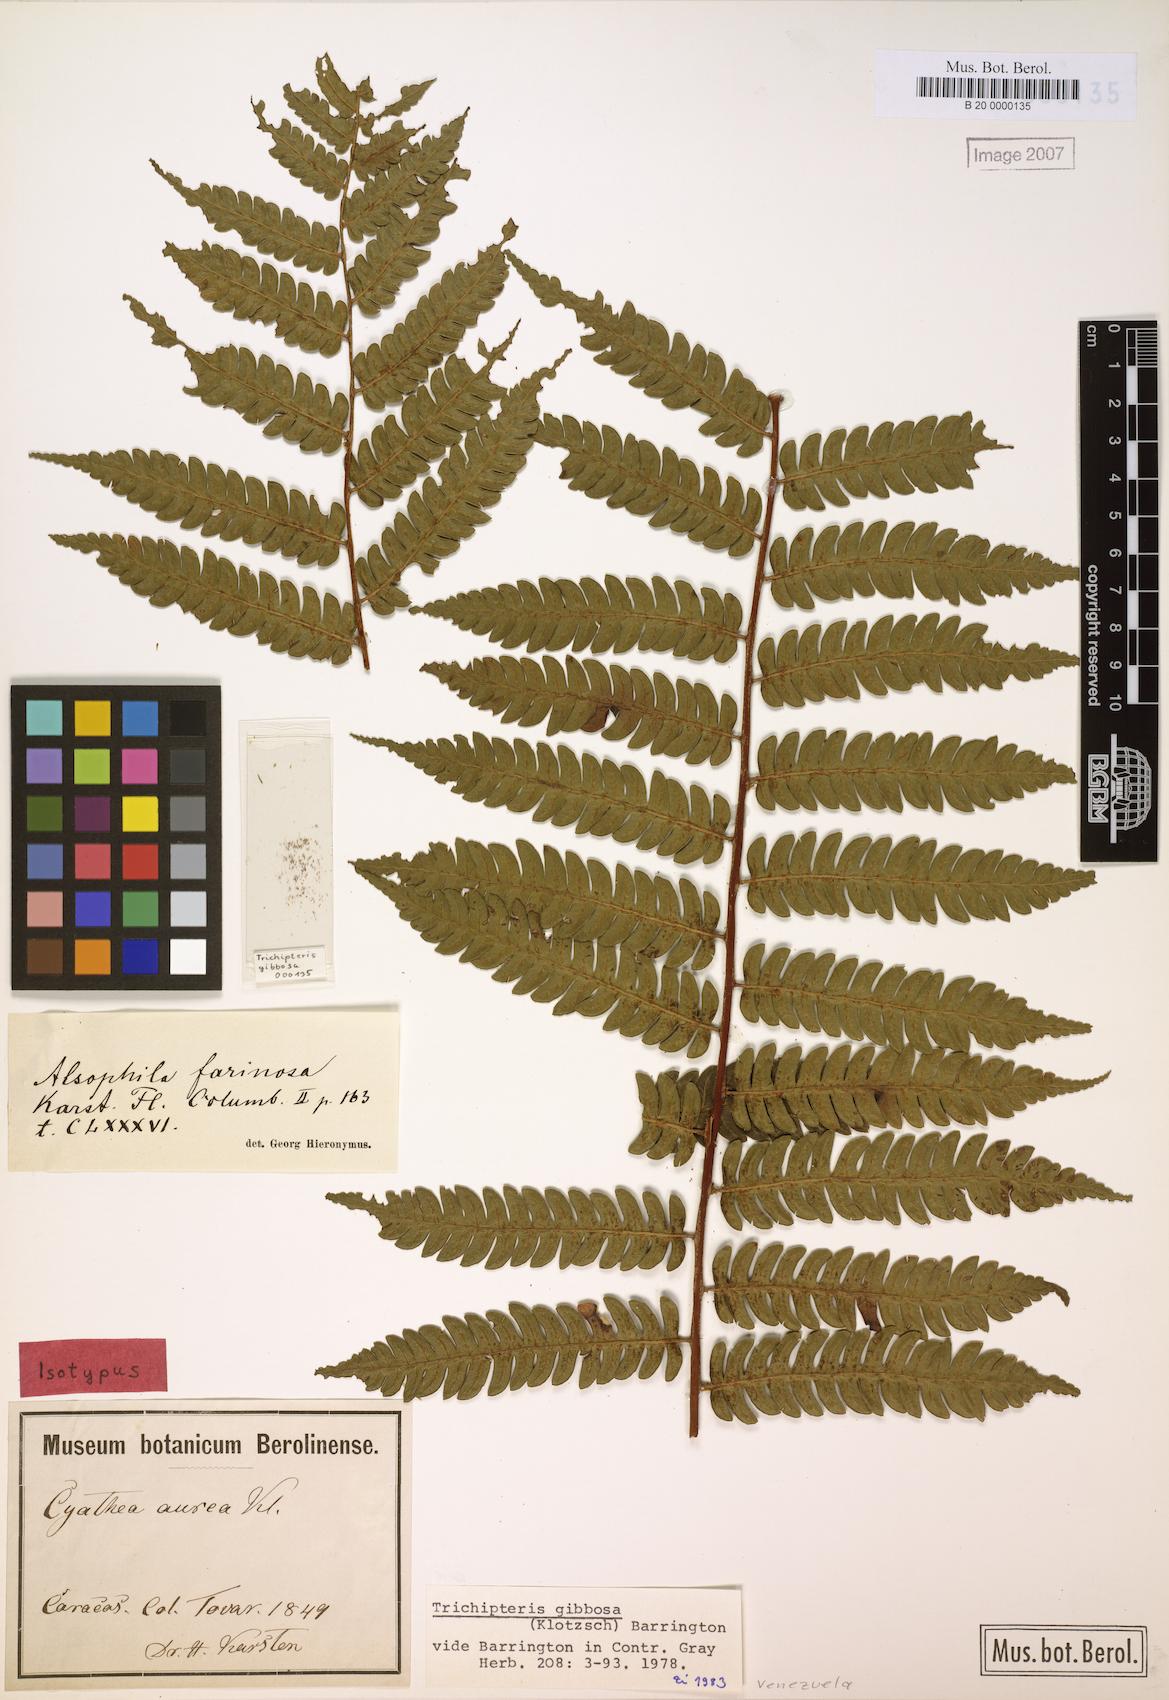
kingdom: Plantae
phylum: Tracheophyta
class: Polypodiopsida
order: Cyatheales
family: Cyatheaceae
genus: Cyathea
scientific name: Cyathea gibbosa
